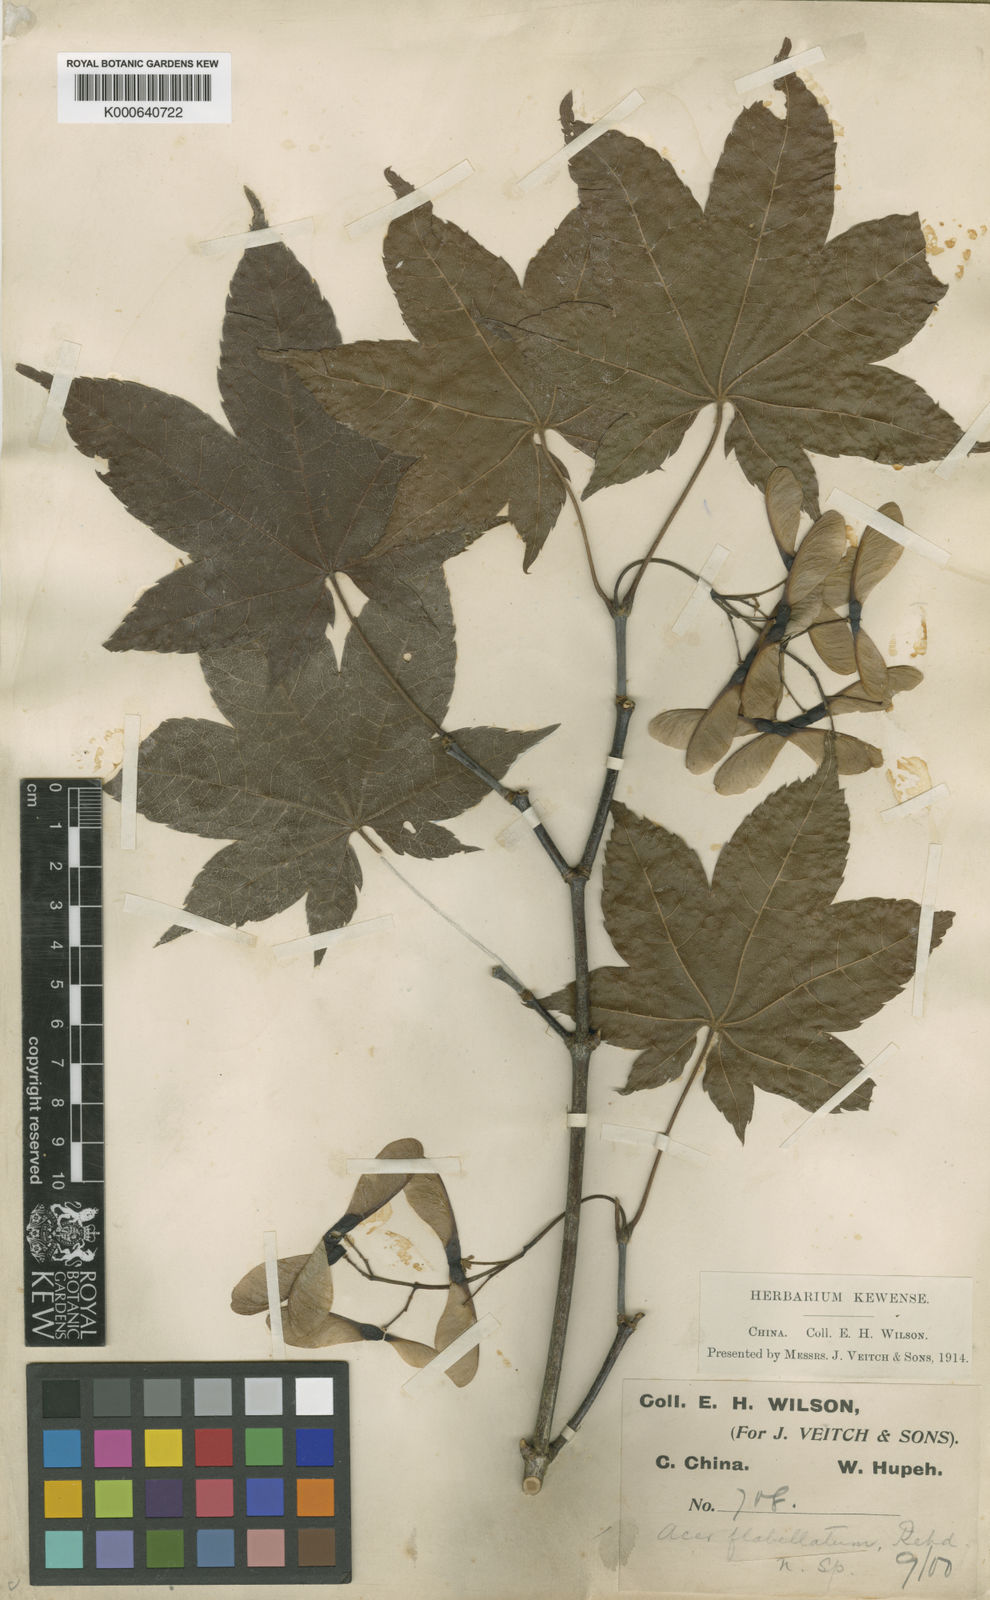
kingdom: Plantae
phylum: Tracheophyta
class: Magnoliopsida
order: Sapindales
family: Sapindaceae
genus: Acer
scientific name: Acer campbellii
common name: Campbell's maple
